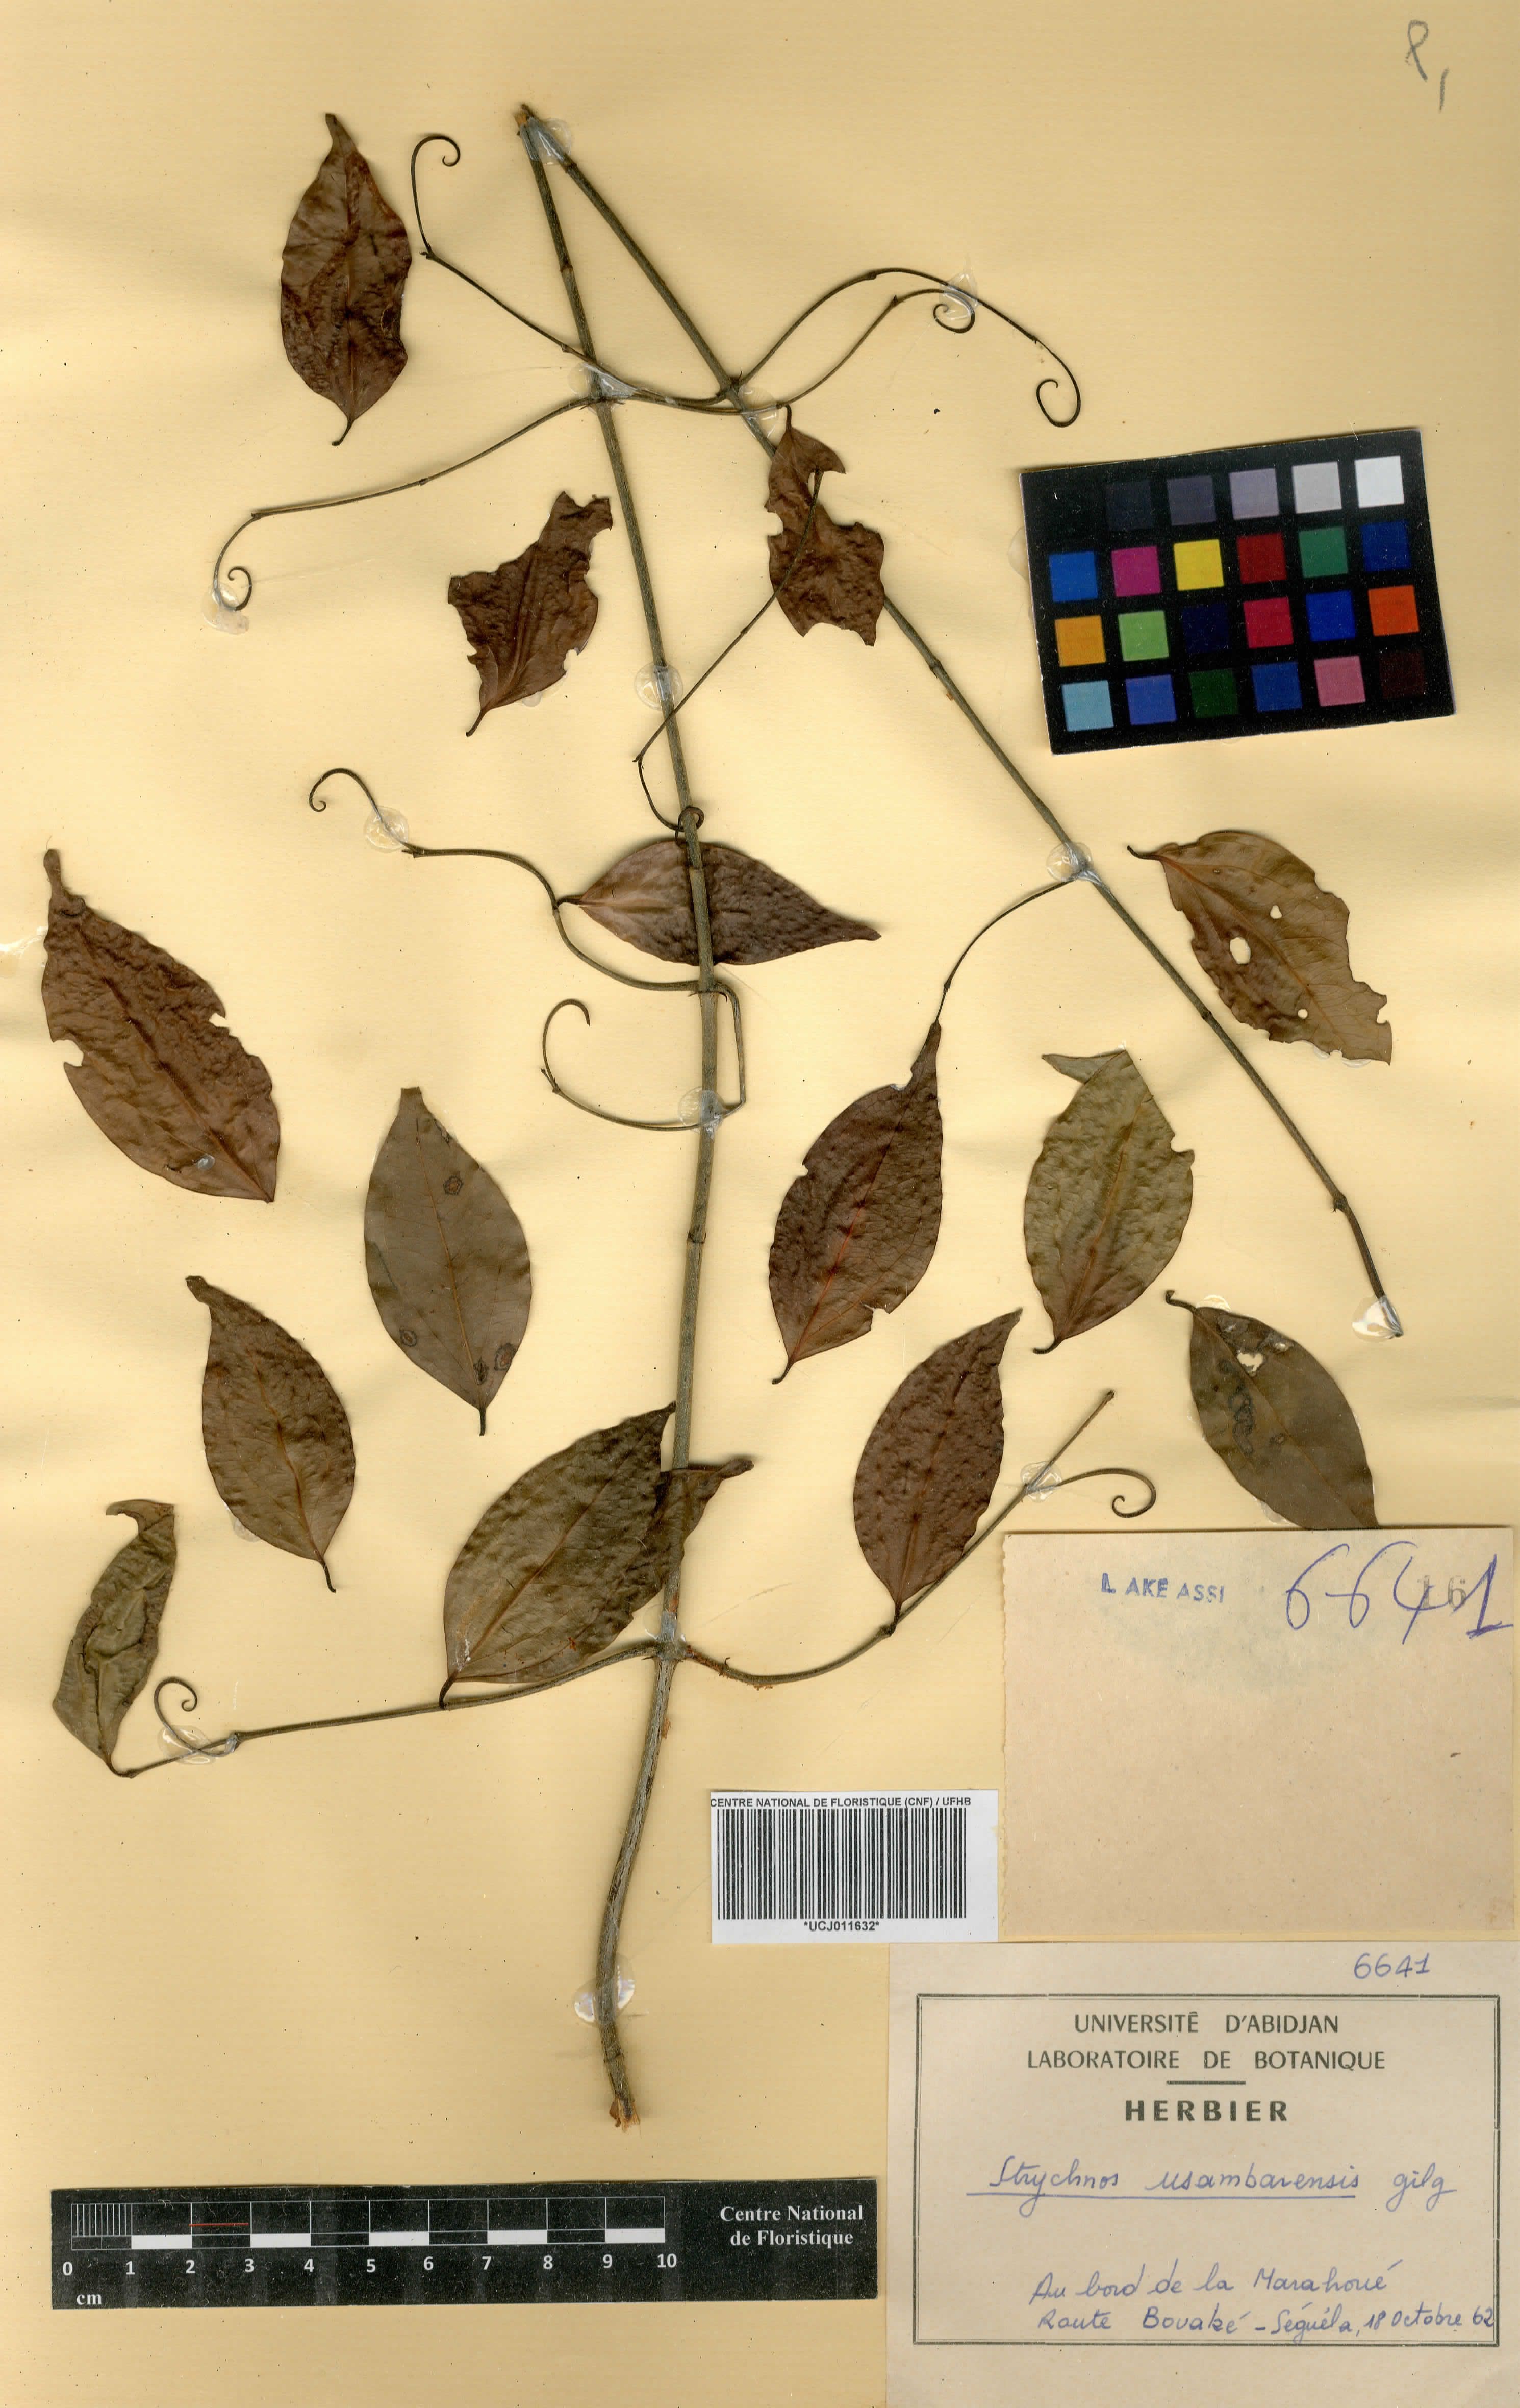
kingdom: Plantae
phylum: Tracheophyta
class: Magnoliopsida
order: Gentianales
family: Loganiaceae
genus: Strychnos
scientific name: Strychnos usambarensis
